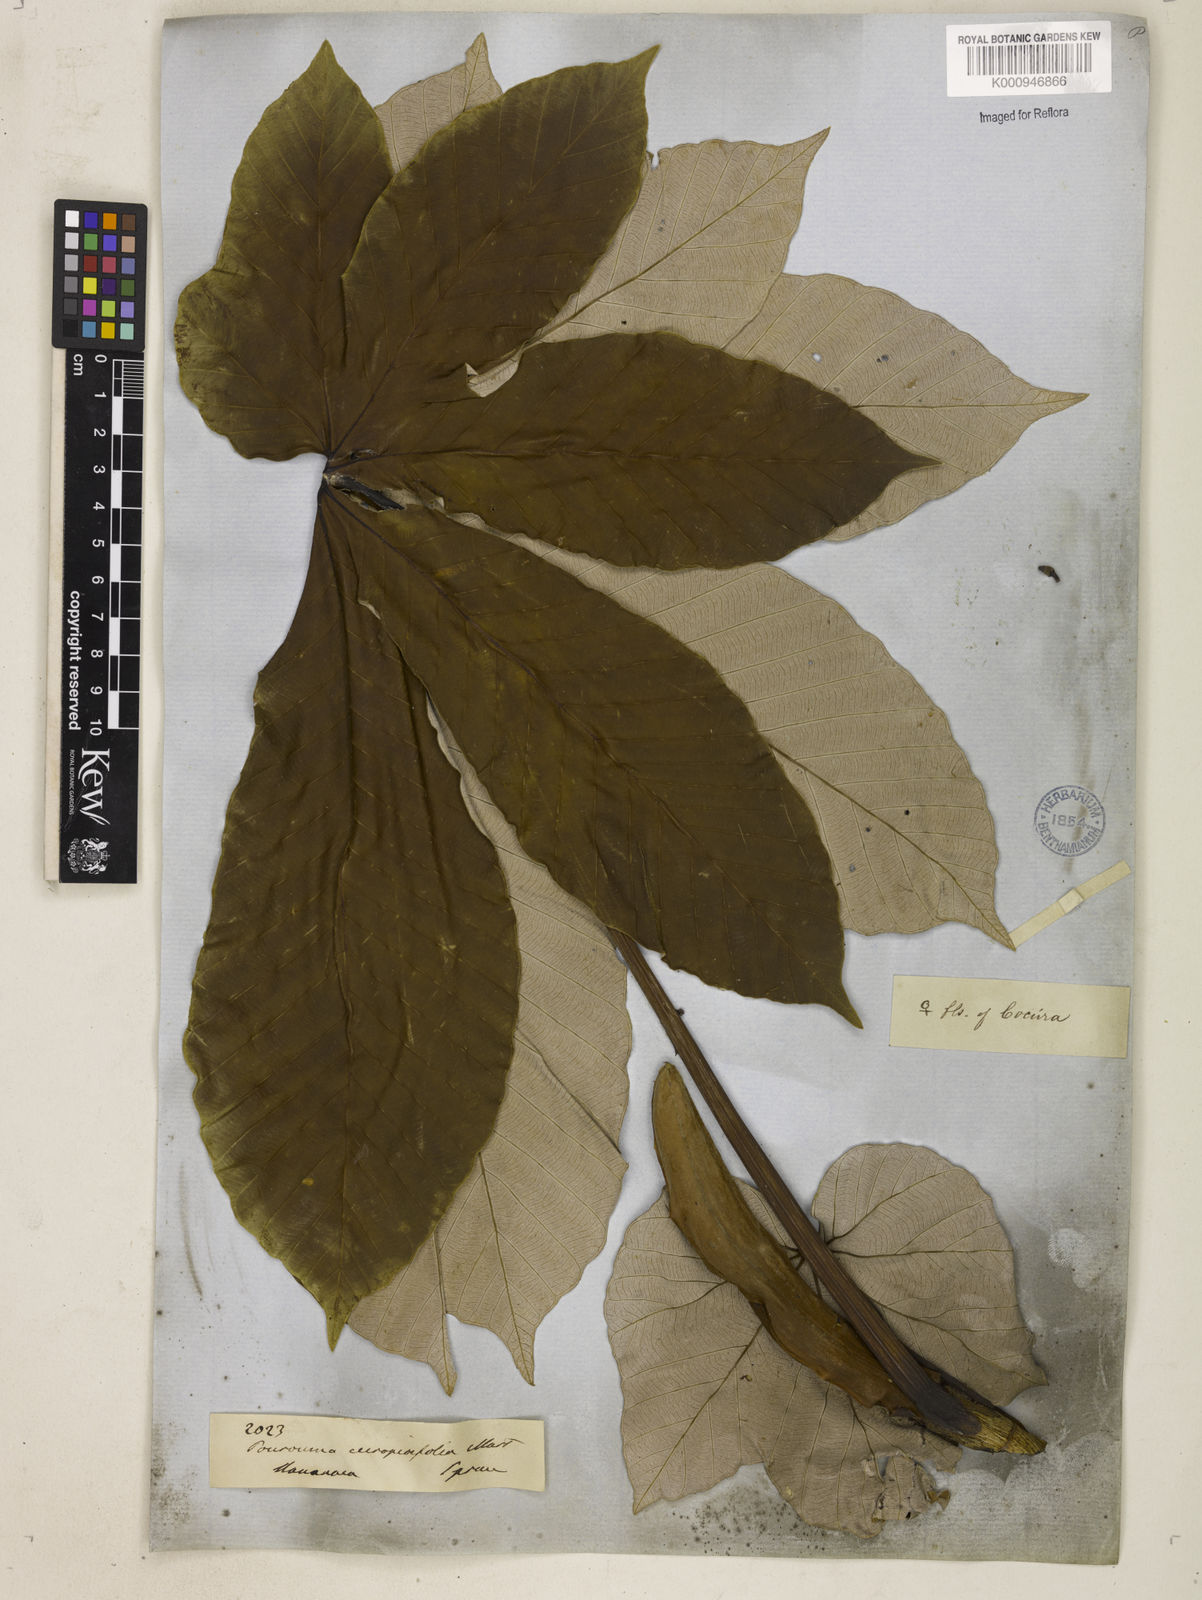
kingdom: Plantae
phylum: Tracheophyta
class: Magnoliopsida
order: Rosales
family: Urticaceae
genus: Pourouma
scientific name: Pourouma cecropiifolia
